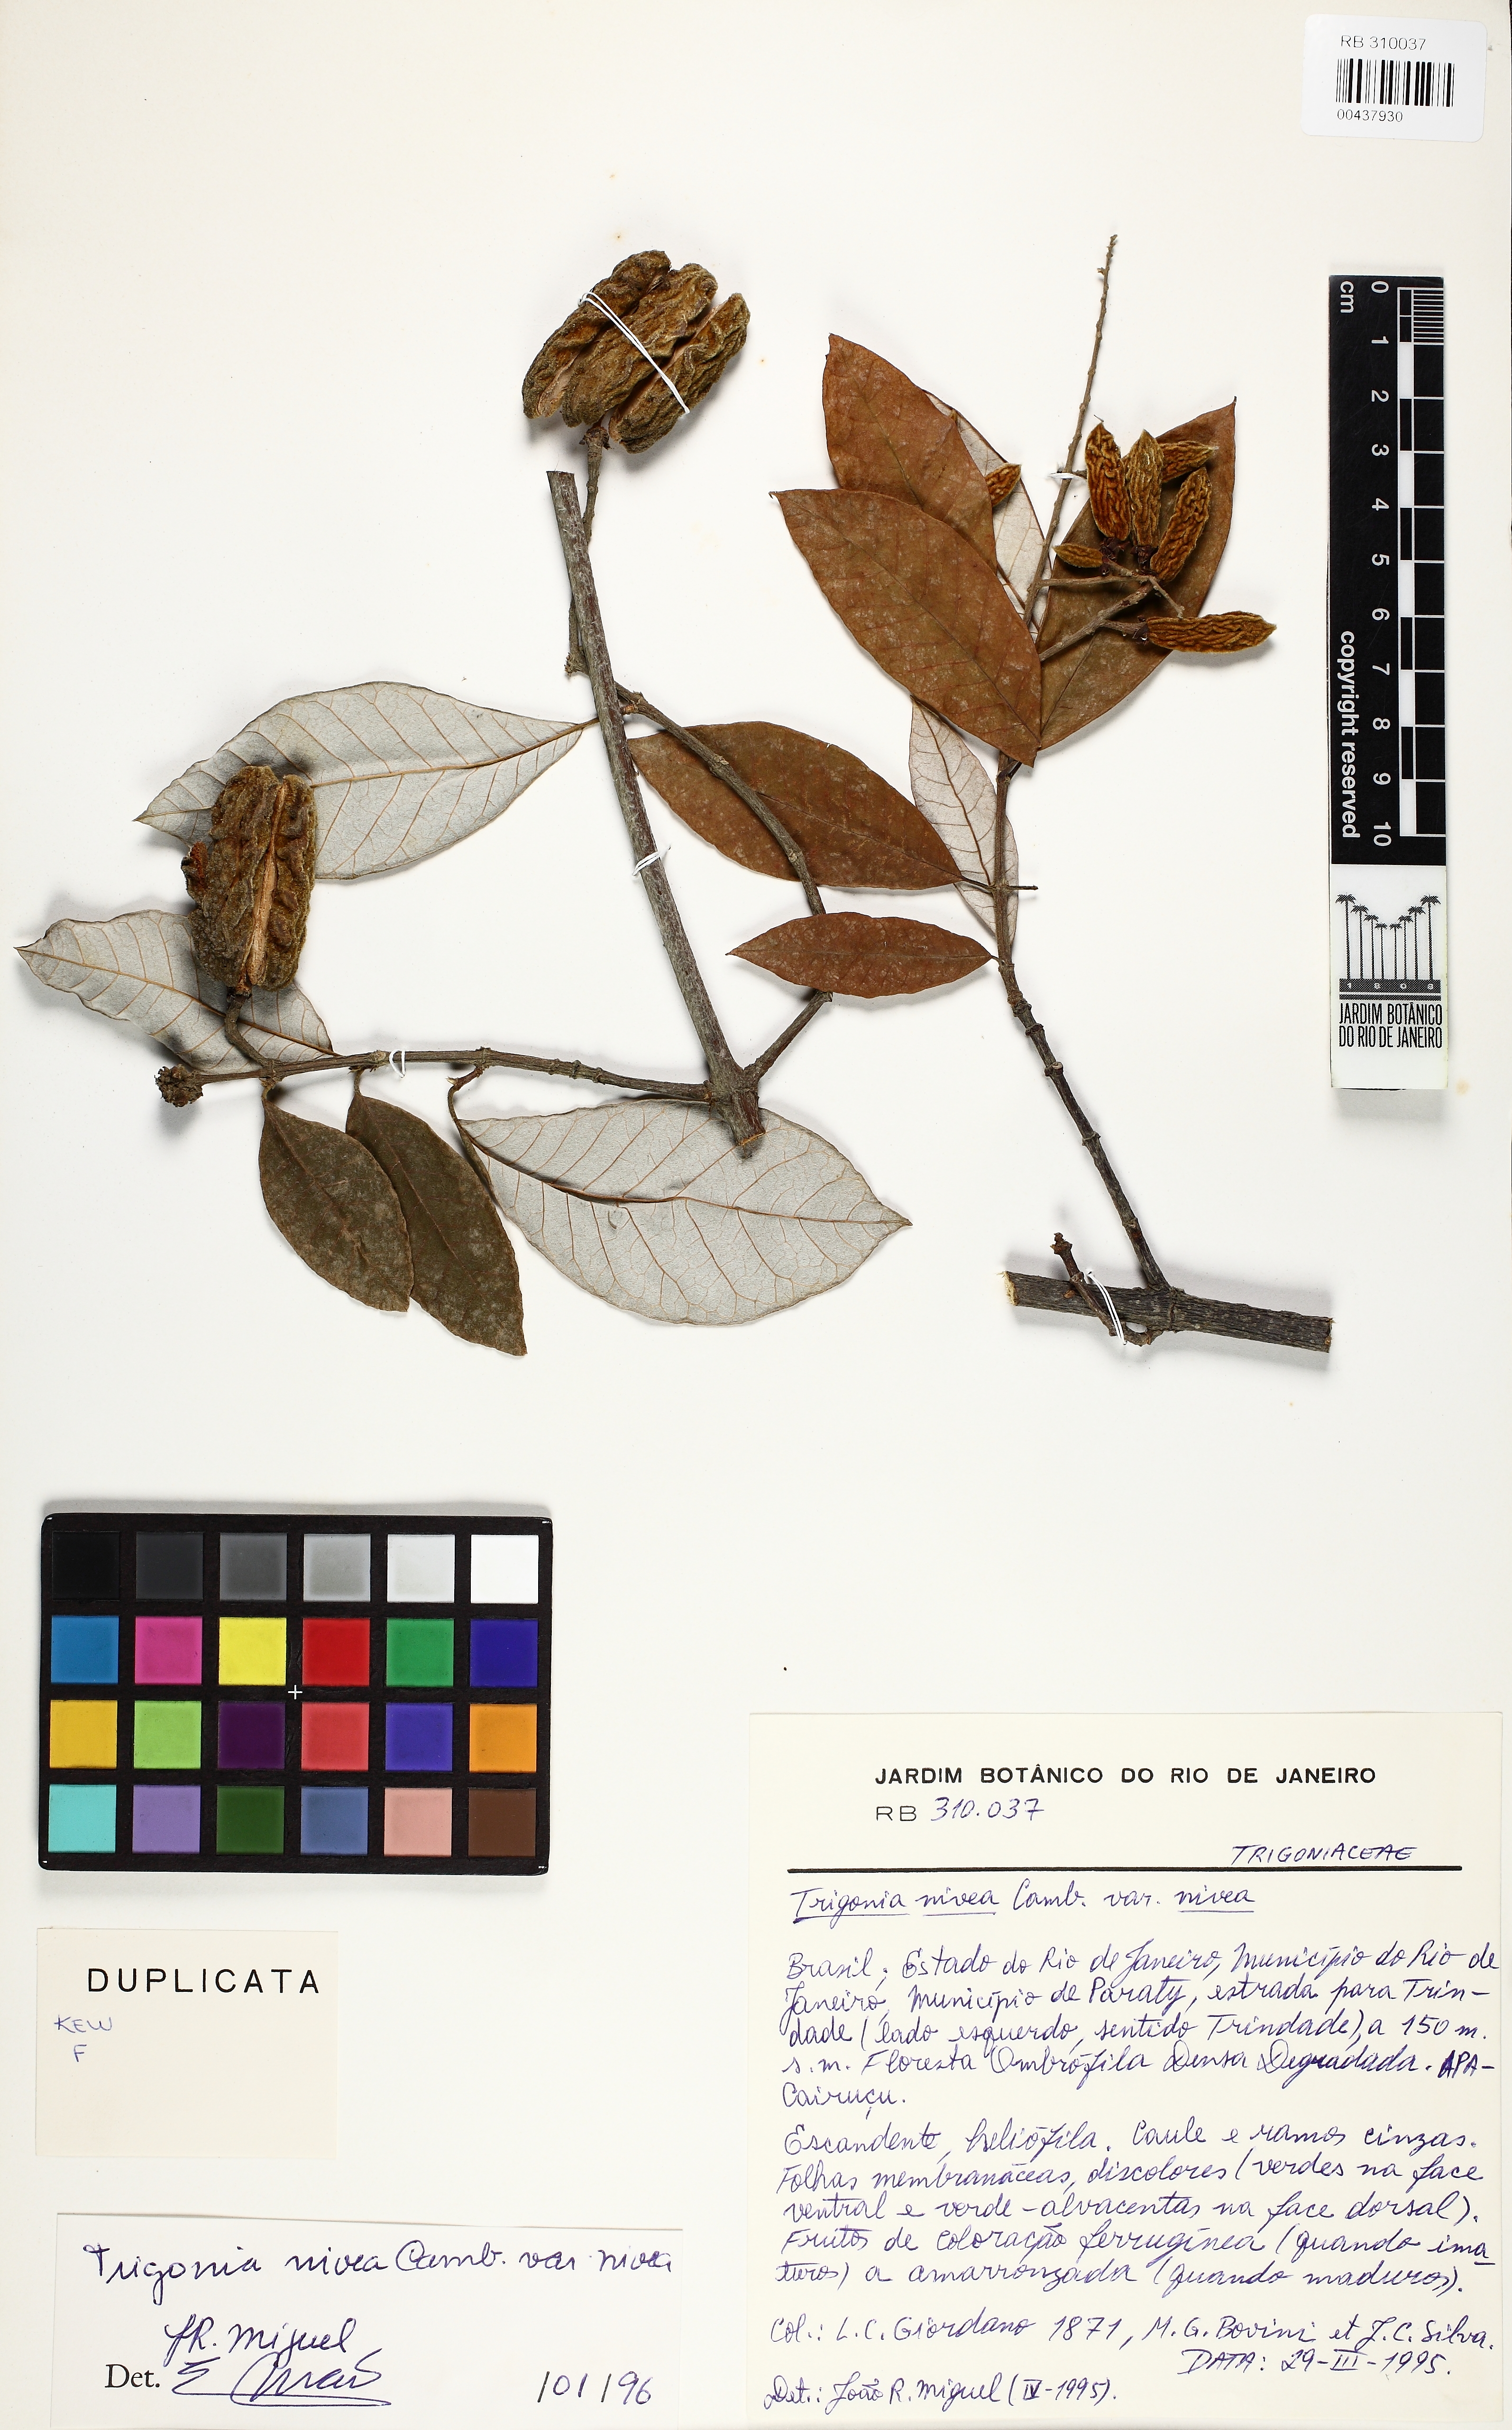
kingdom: Plantae
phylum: Tracheophyta
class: Magnoliopsida
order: Malpighiales
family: Trigoniaceae
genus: Trigonia
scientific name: Trigonia nivea
